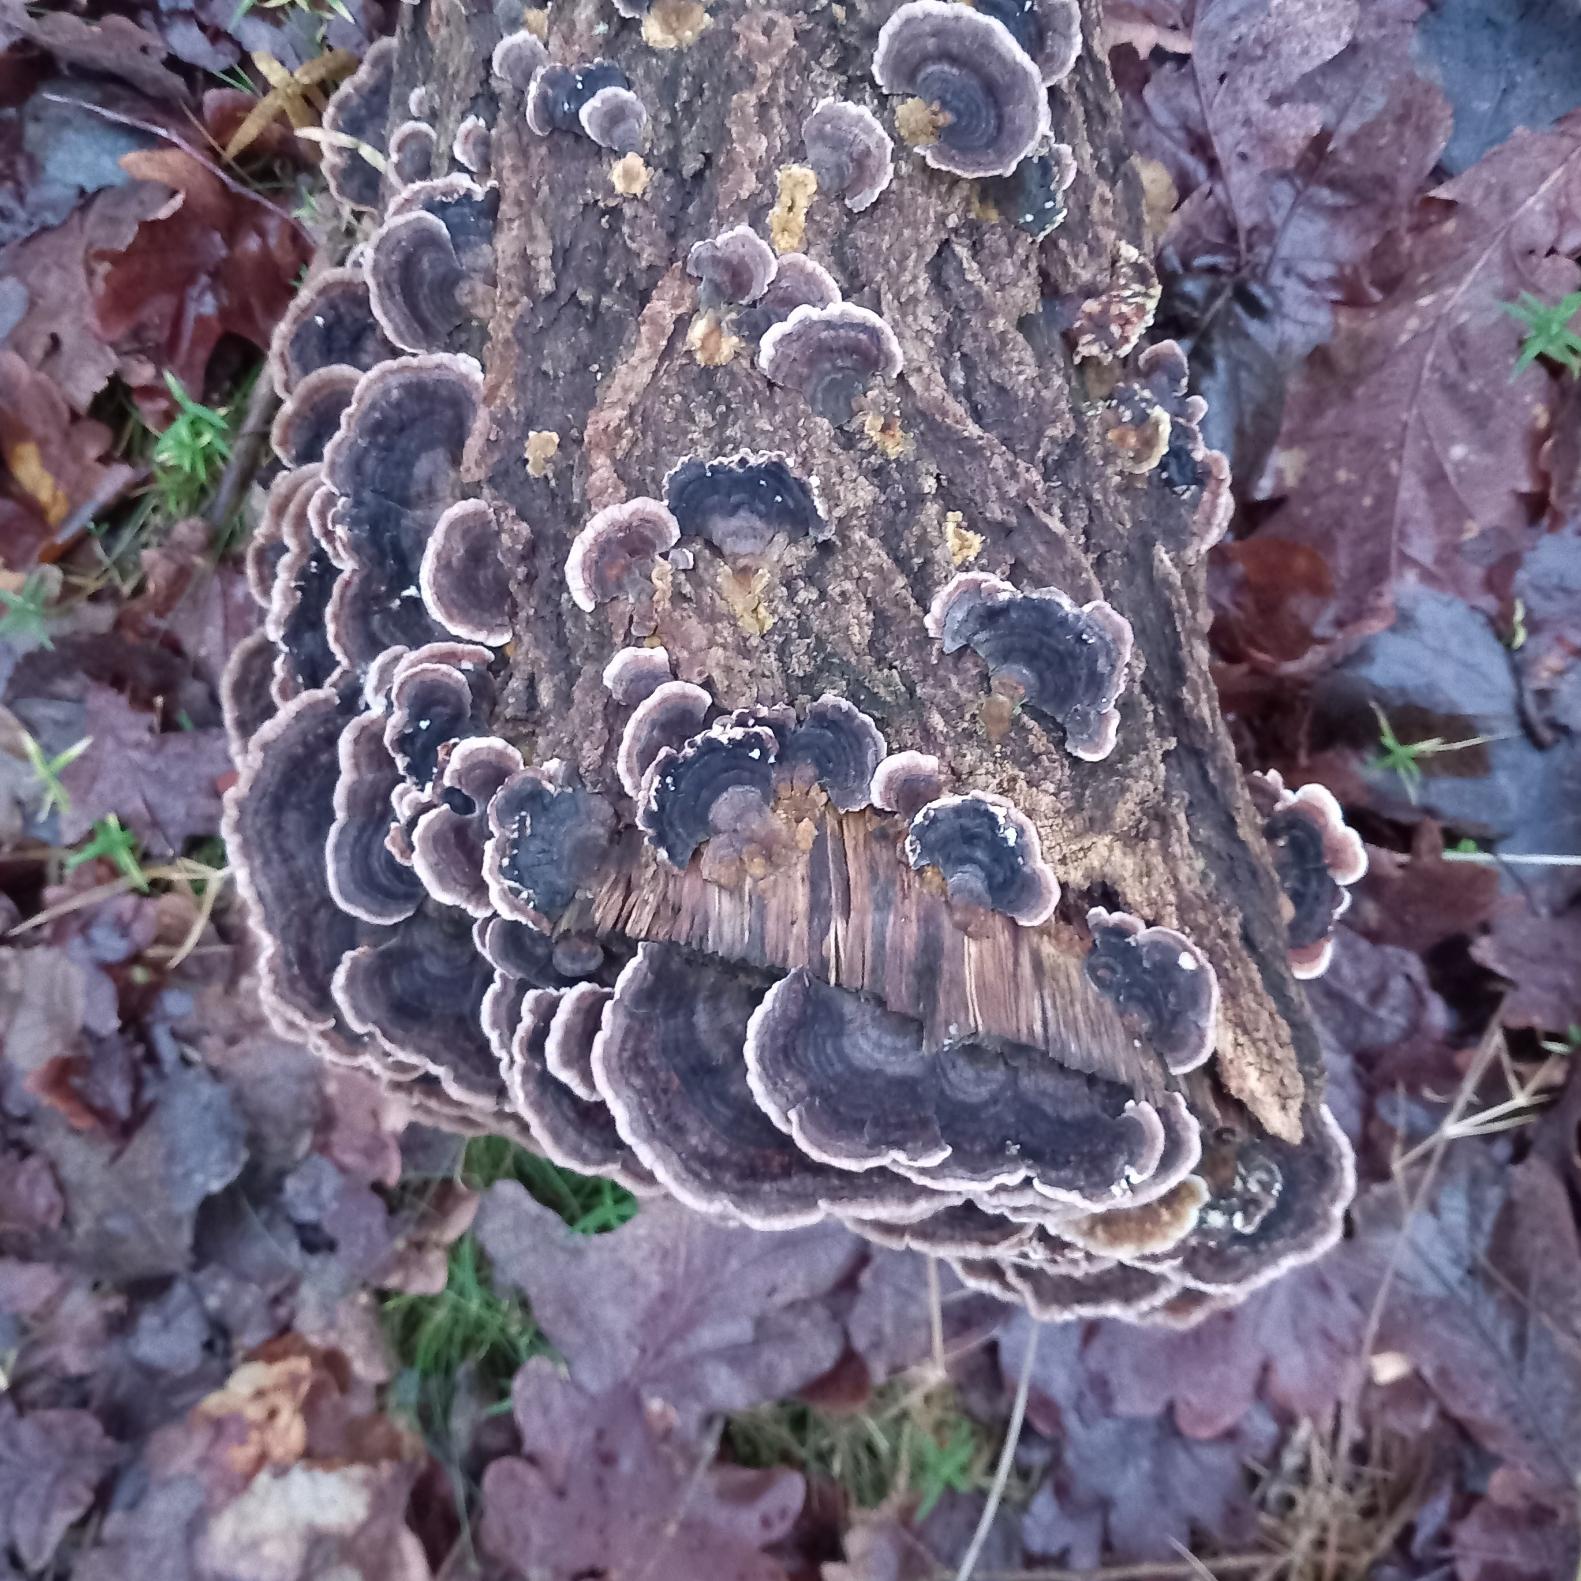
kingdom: Fungi
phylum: Basidiomycota
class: Agaricomycetes
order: Polyporales
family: Polyporaceae
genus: Trametes
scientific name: Trametes versicolor
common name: Broget læderporesvamp
